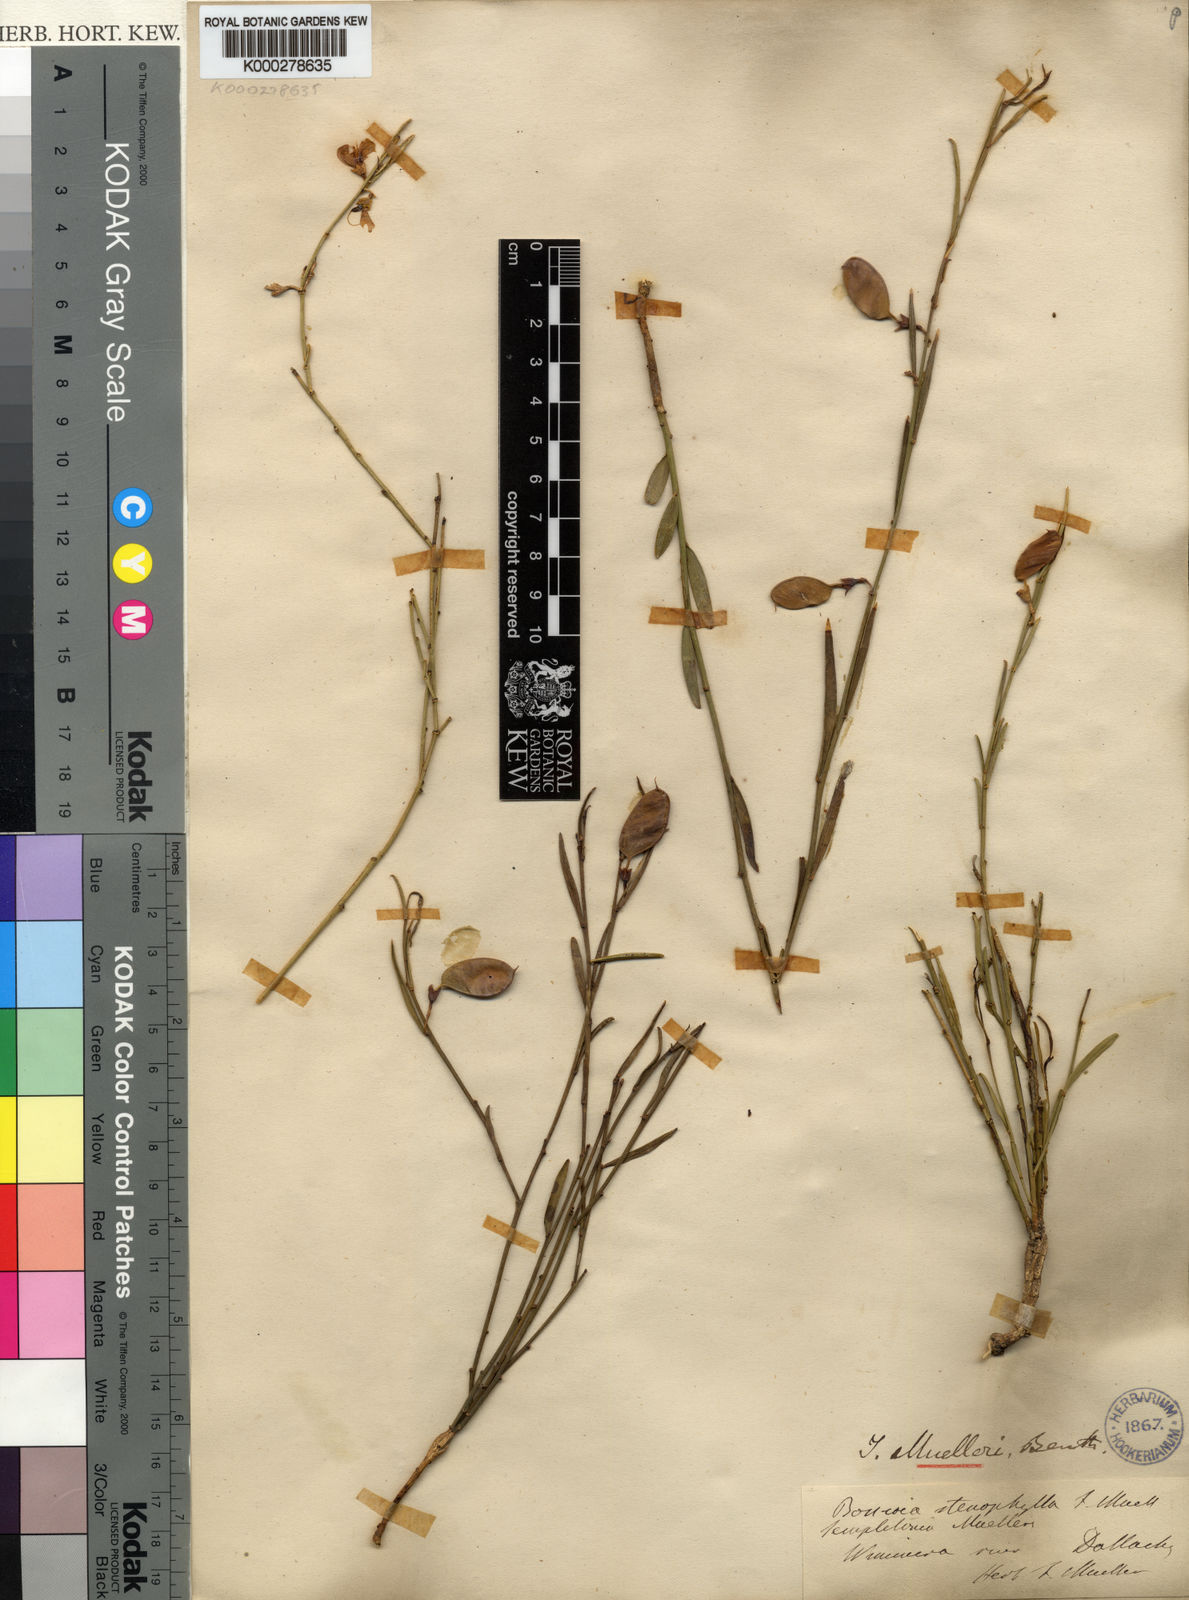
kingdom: Plantae
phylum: Tracheophyta
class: Magnoliopsida
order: Fabales
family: Fabaceae
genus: Templetonia
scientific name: Templetonia stenophylla
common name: Leafy templetonia
